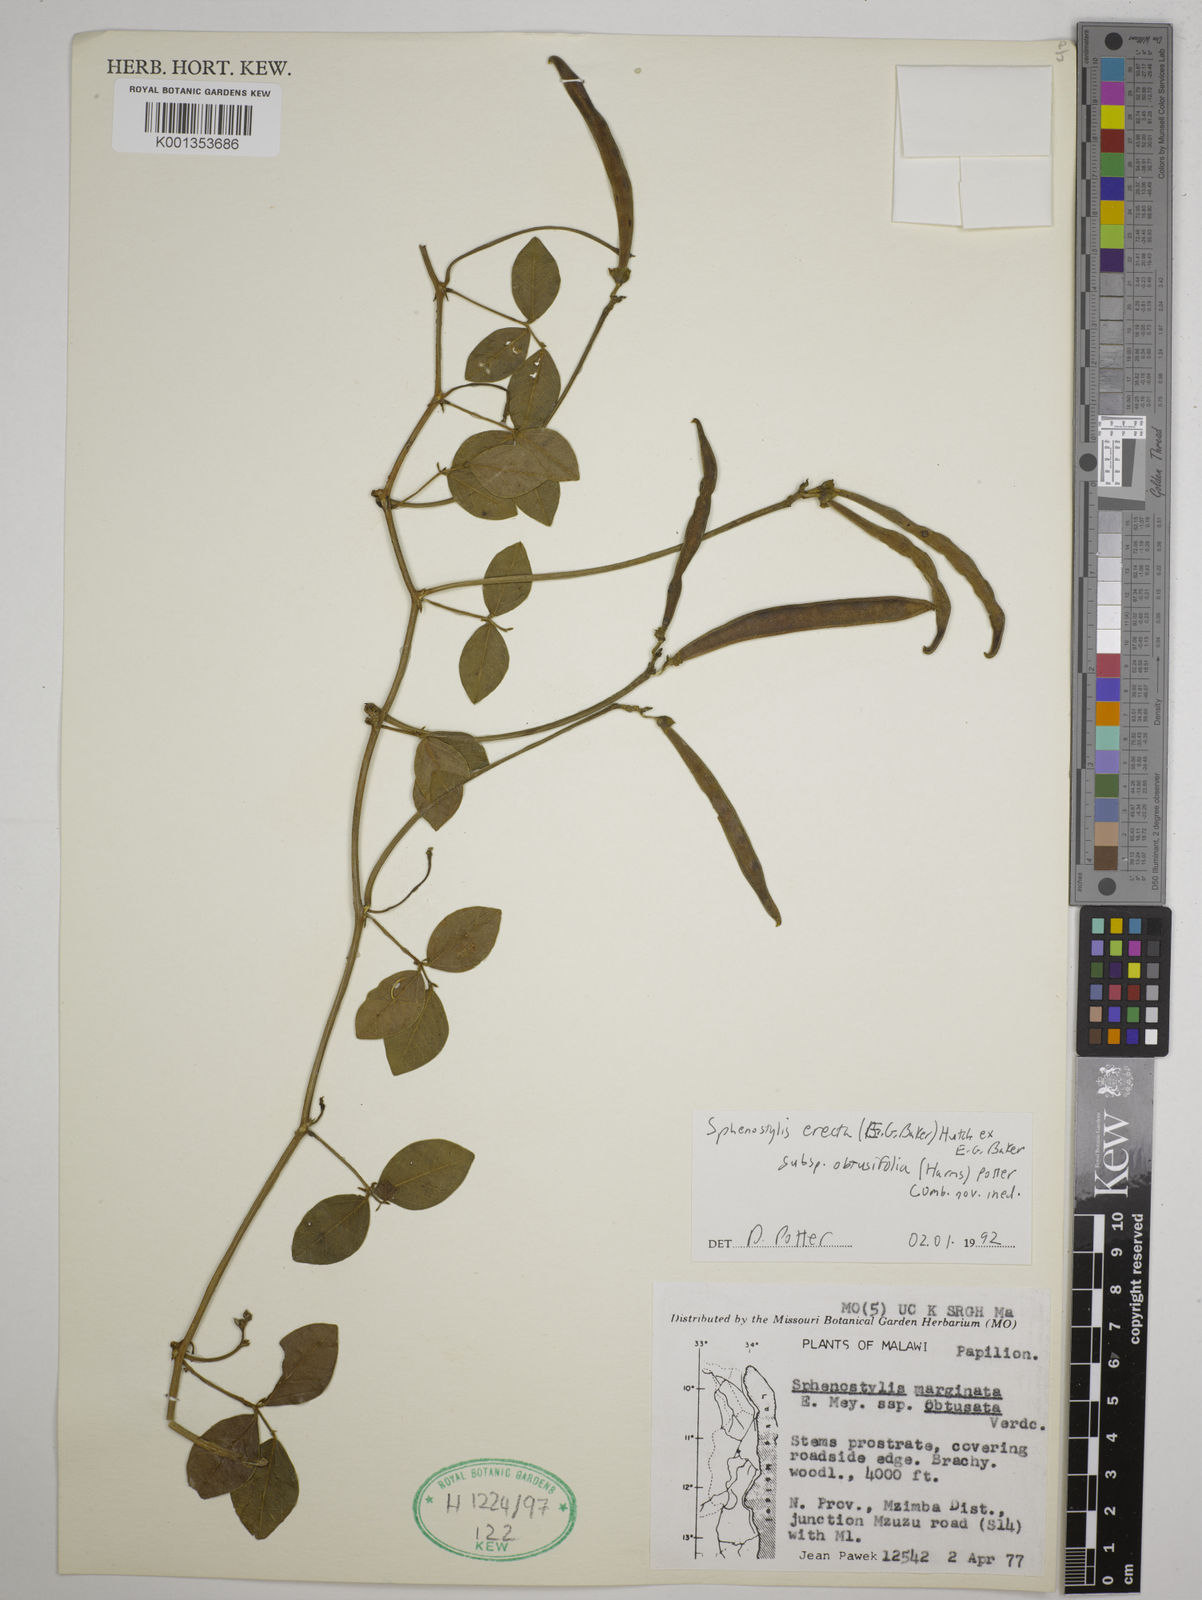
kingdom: Plantae
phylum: Tracheophyta
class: Magnoliopsida
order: Fabales
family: Fabaceae
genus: Sphenostylis
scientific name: Sphenostylis erecta
